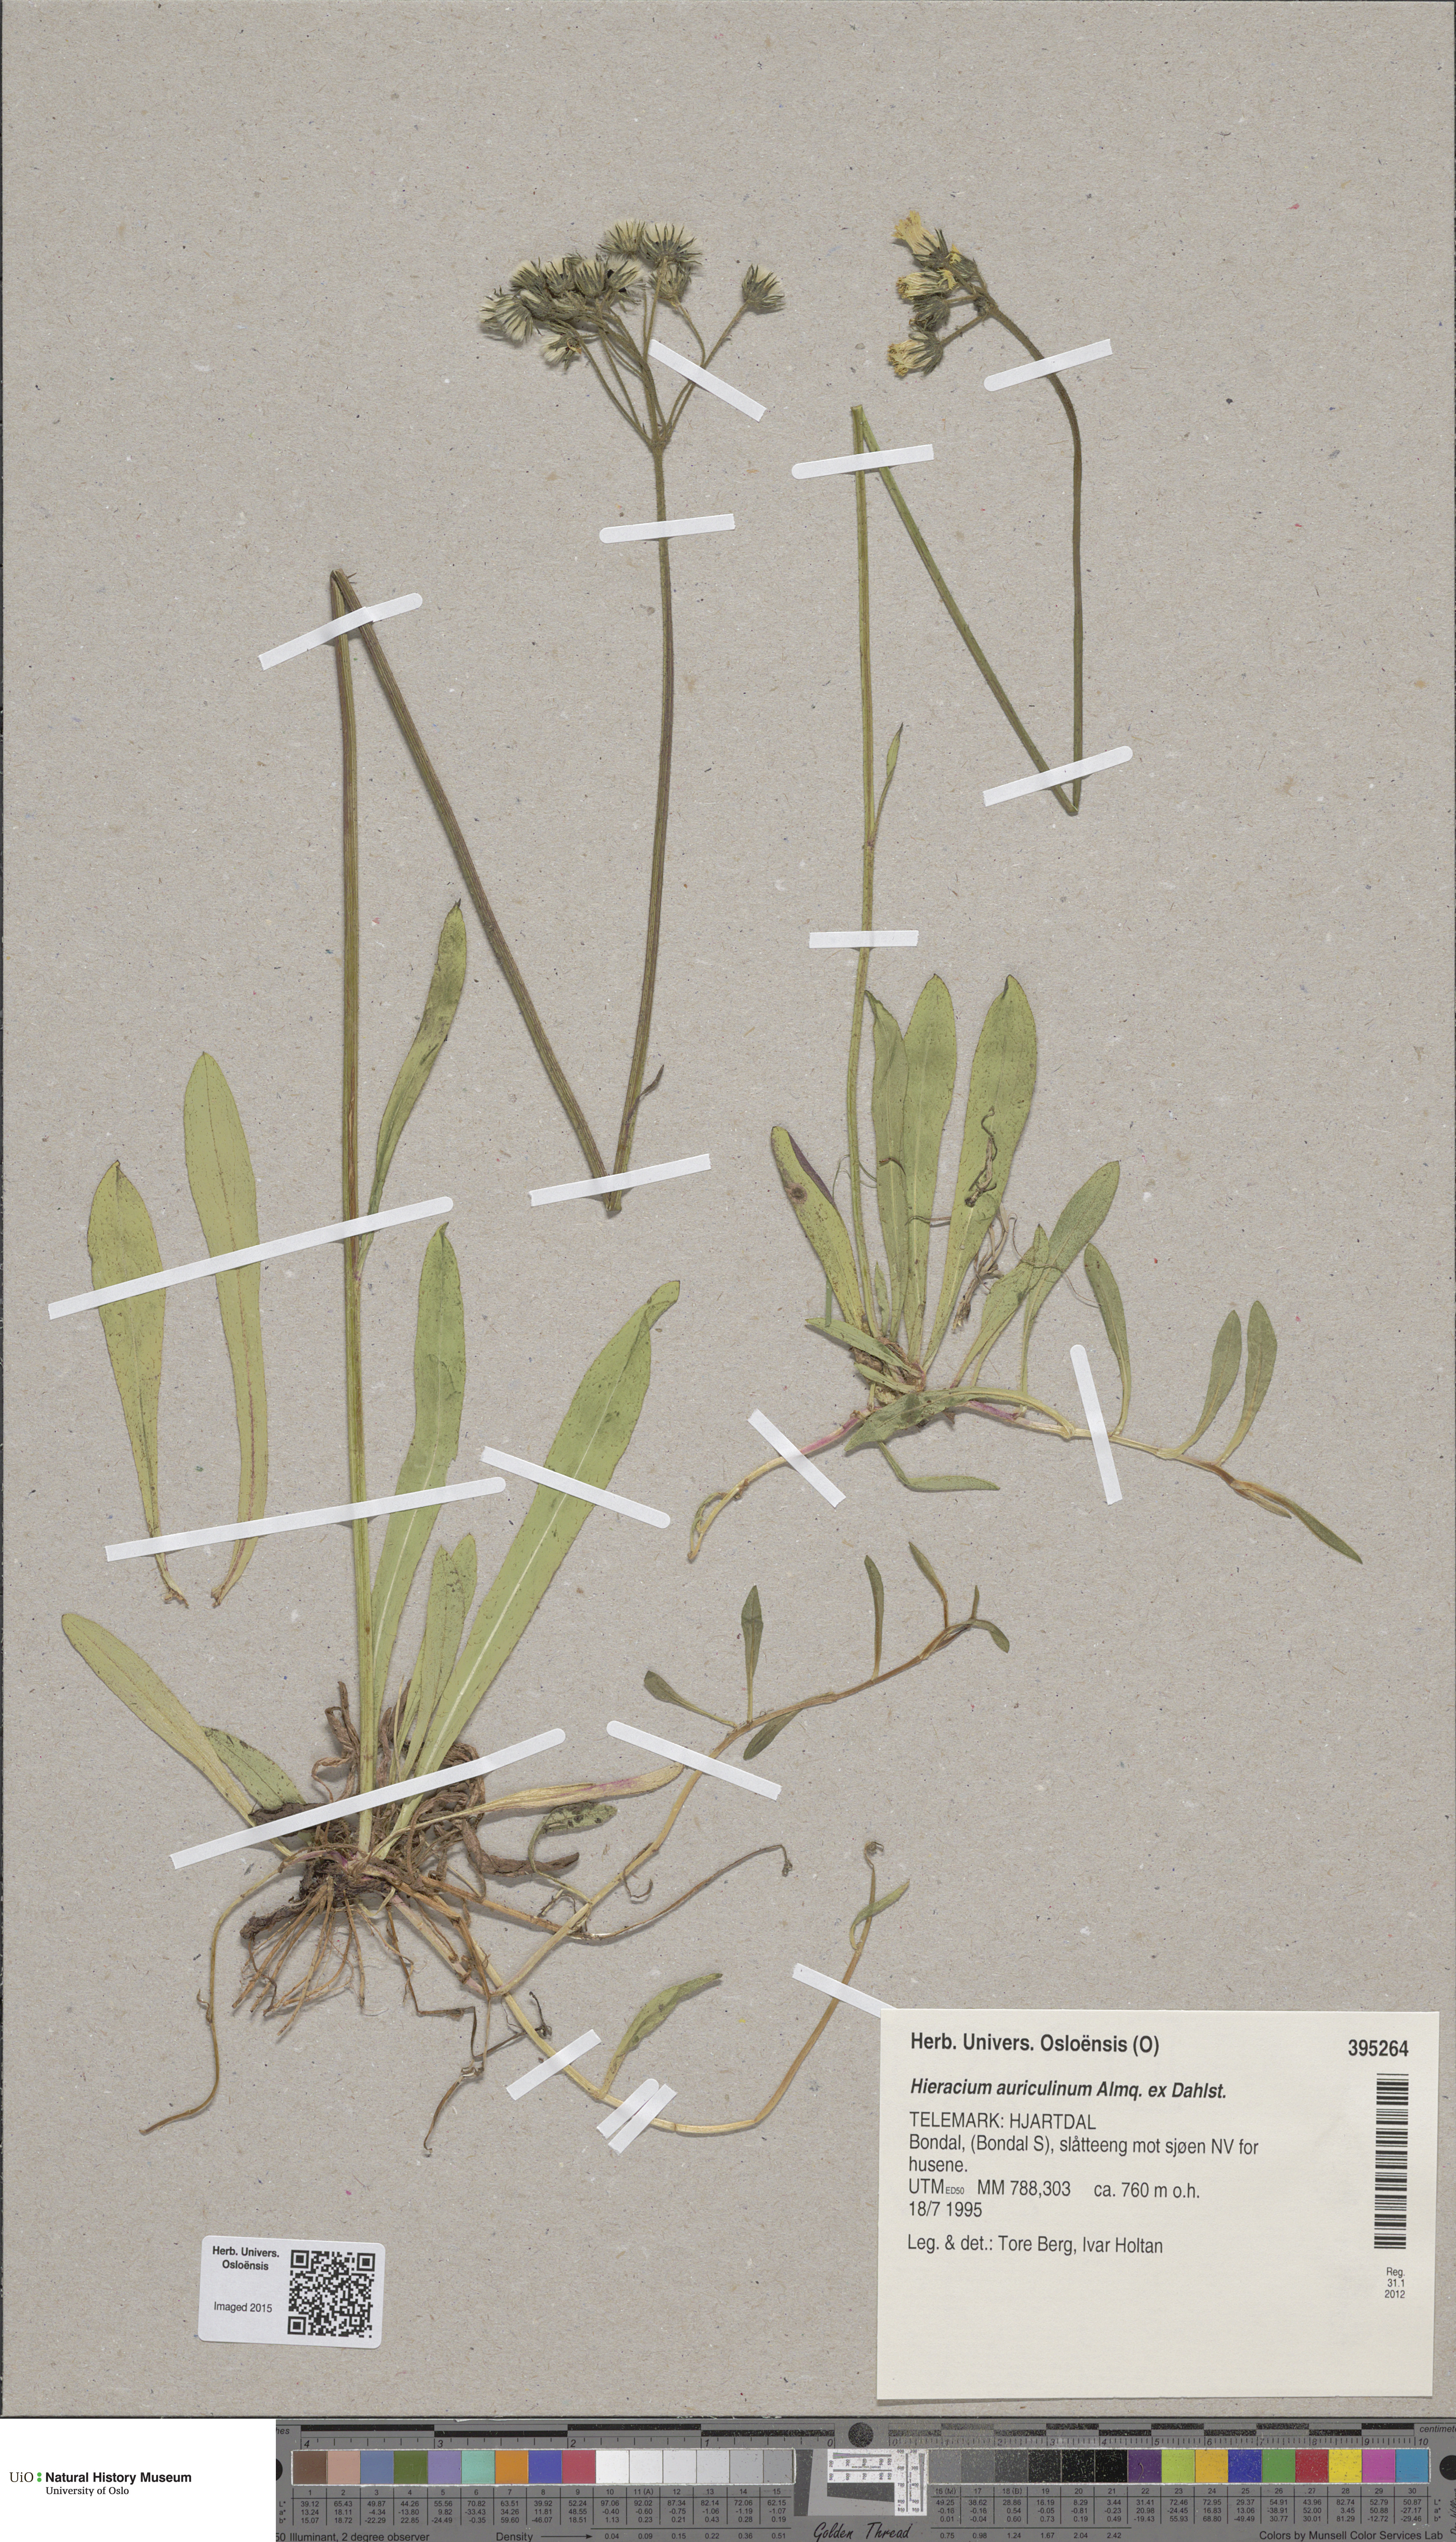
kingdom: Plantae
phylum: Tracheophyta
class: Magnoliopsida
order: Asterales
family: Asteraceae
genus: Pilosella
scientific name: Pilosella dubia
